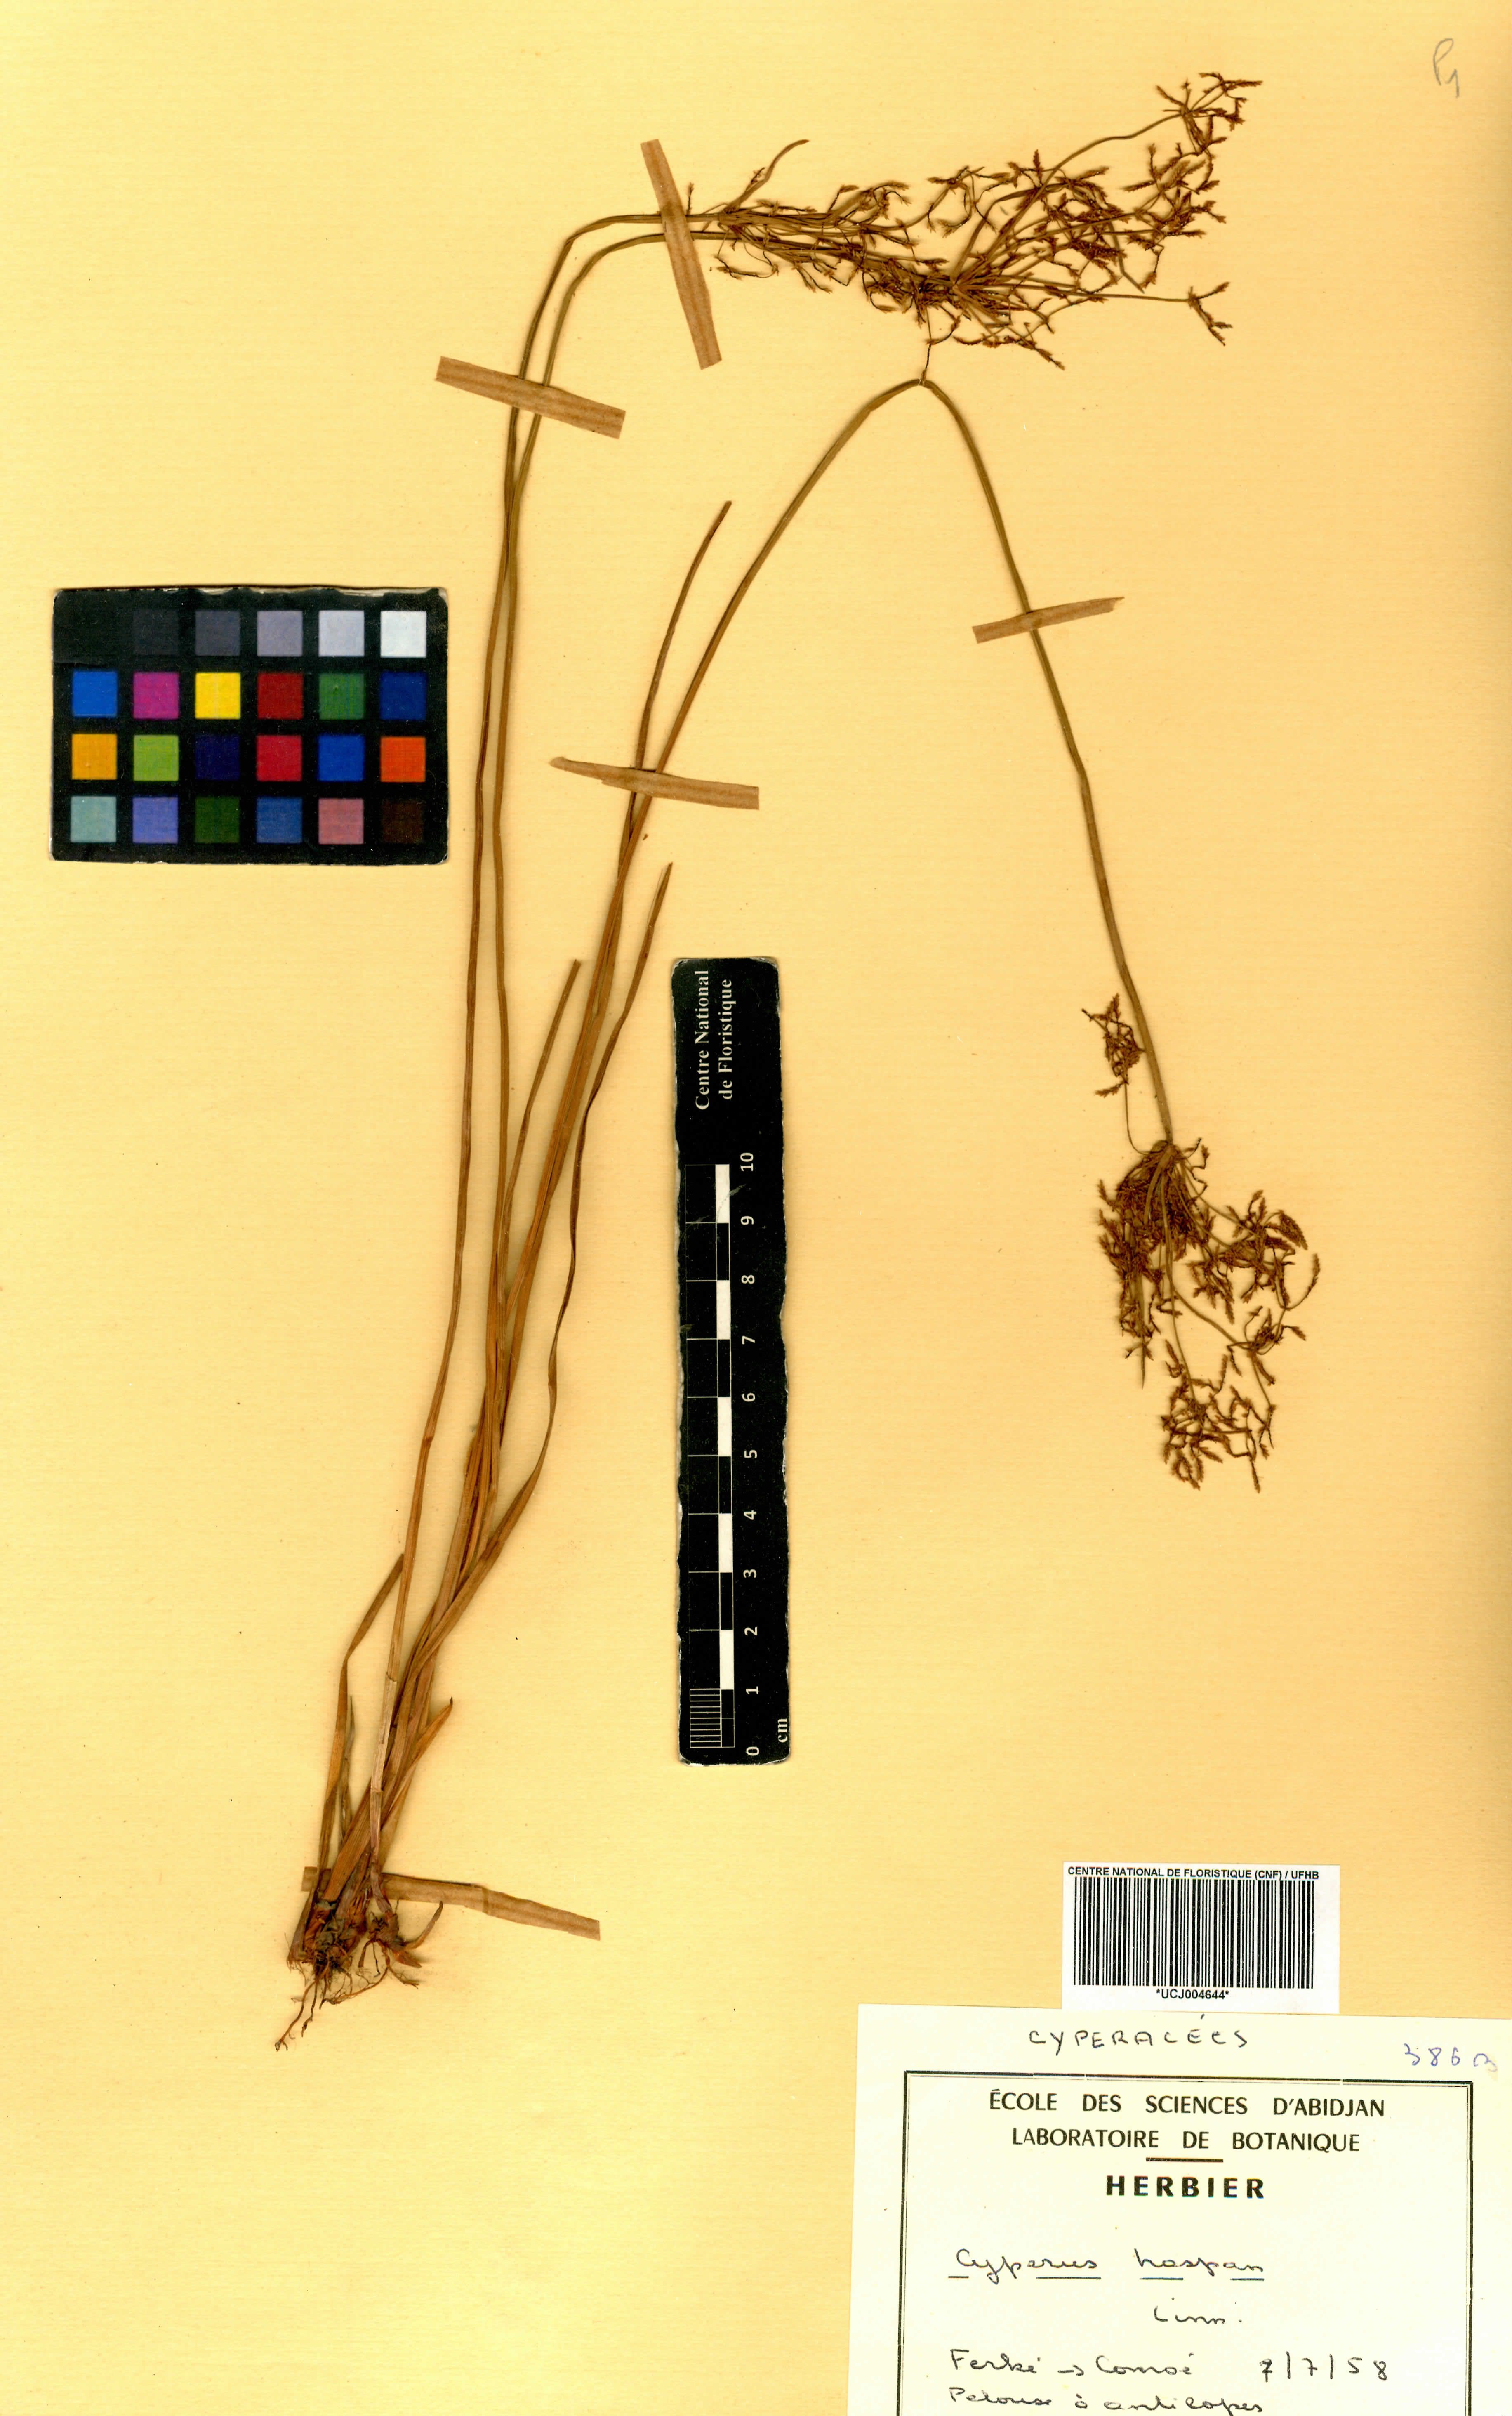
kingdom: Plantae
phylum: Tracheophyta
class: Liliopsida
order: Poales
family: Cyperaceae
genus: Cyperus
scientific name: Cyperus haspan
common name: Haspan flatsedge
